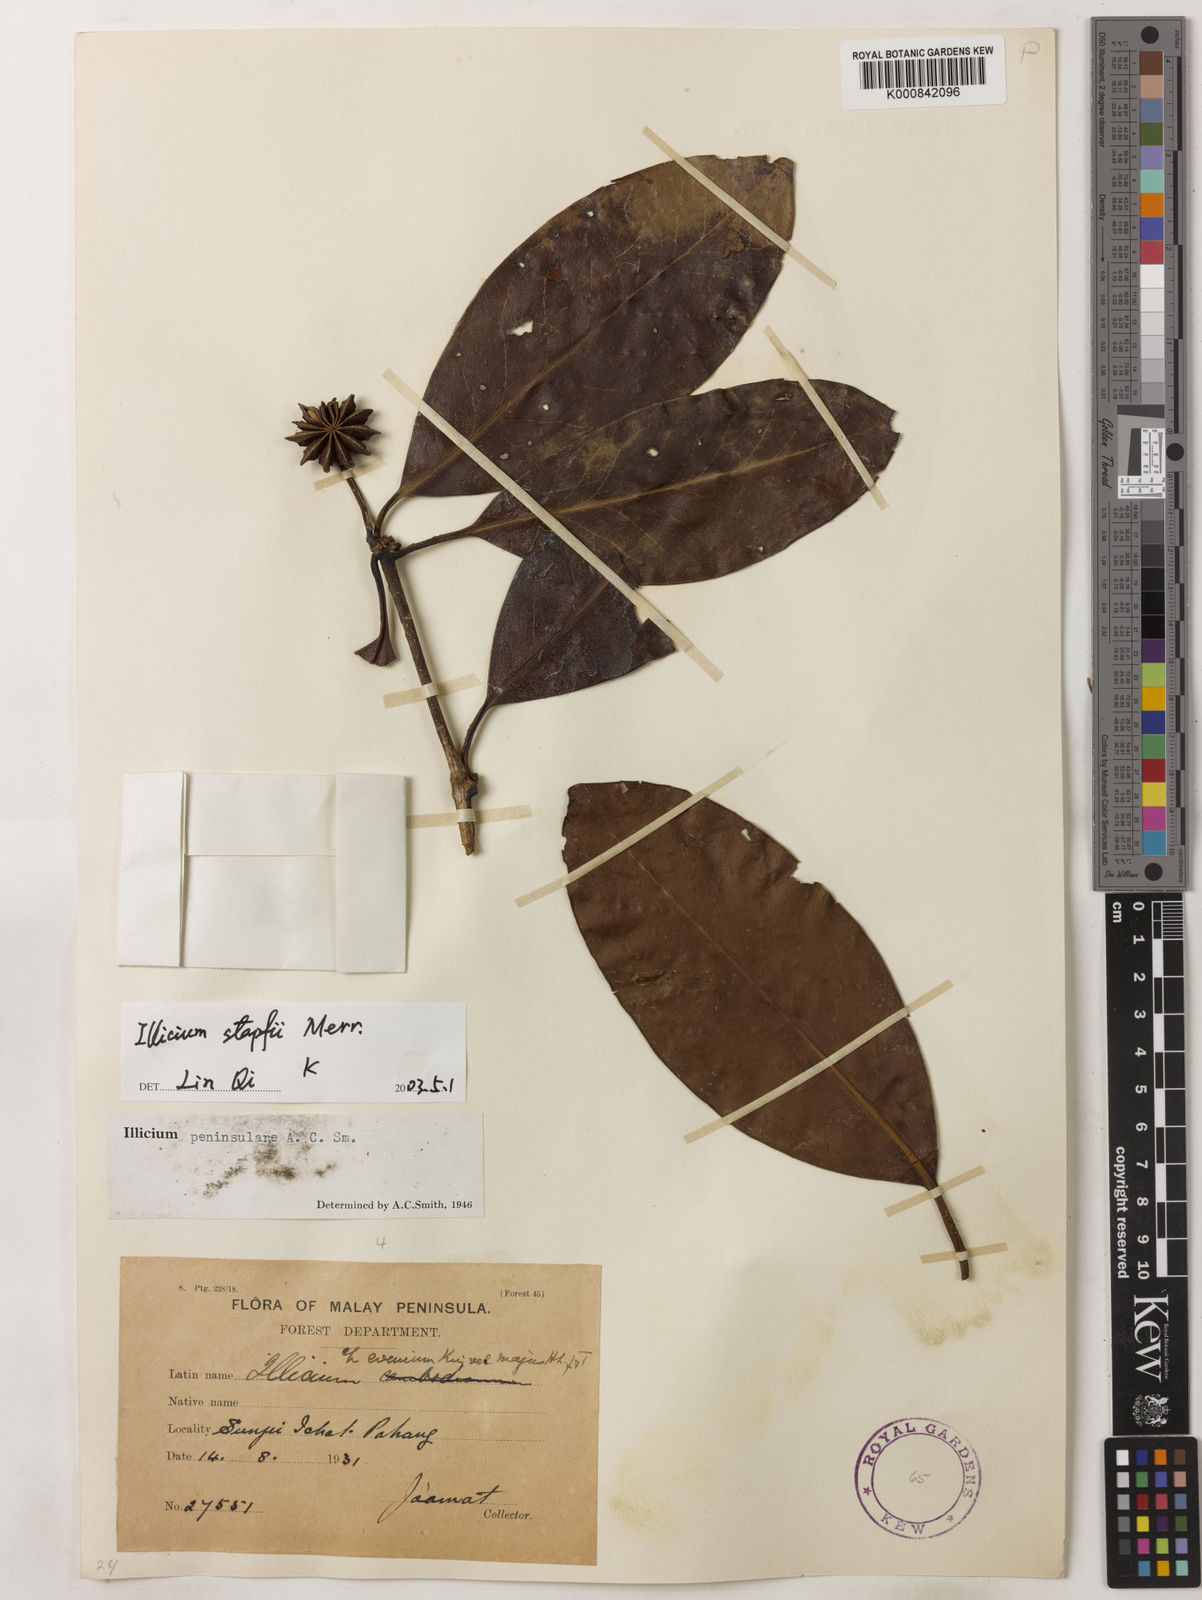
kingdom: Plantae
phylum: Tracheophyta
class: Magnoliopsida
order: Austrobaileyales
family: Schisandraceae
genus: Illicium
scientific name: Illicium stapfii
